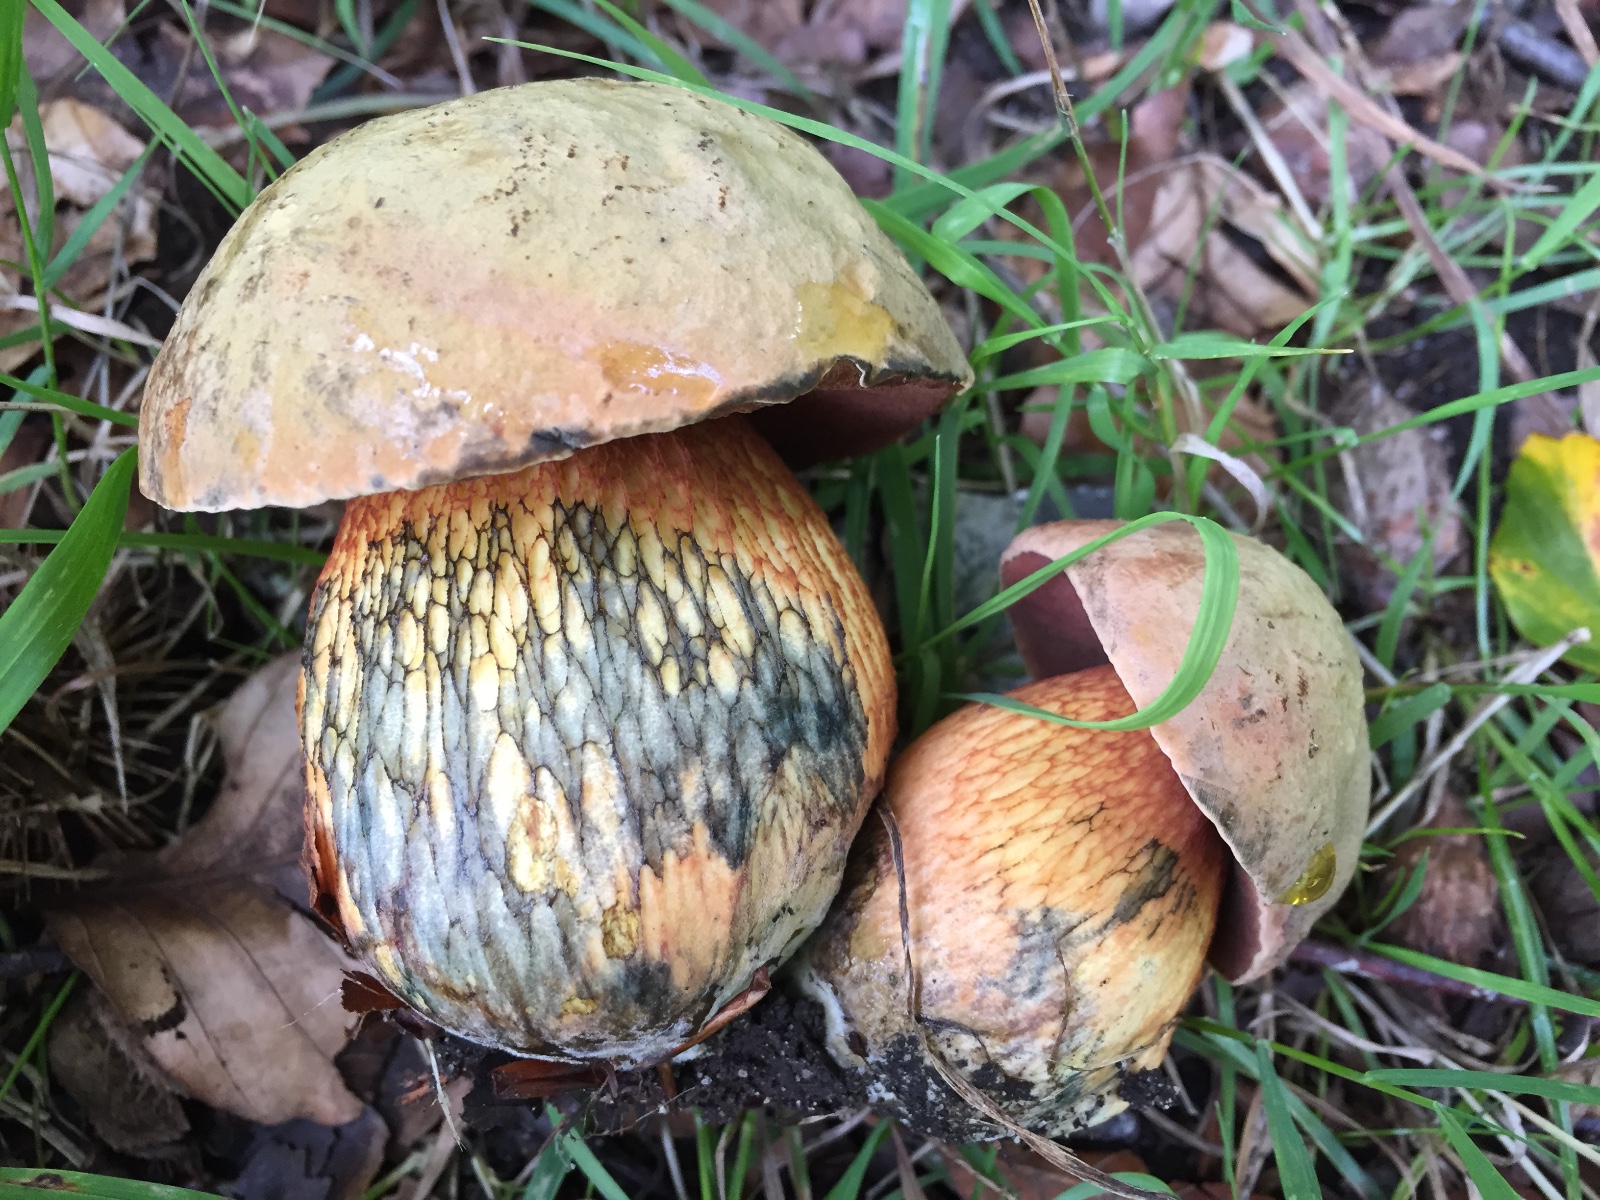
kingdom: Fungi
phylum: Basidiomycota
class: Agaricomycetes
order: Boletales
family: Boletaceae
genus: Suillellus
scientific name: Suillellus luridus
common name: netstokket indigorørhat
